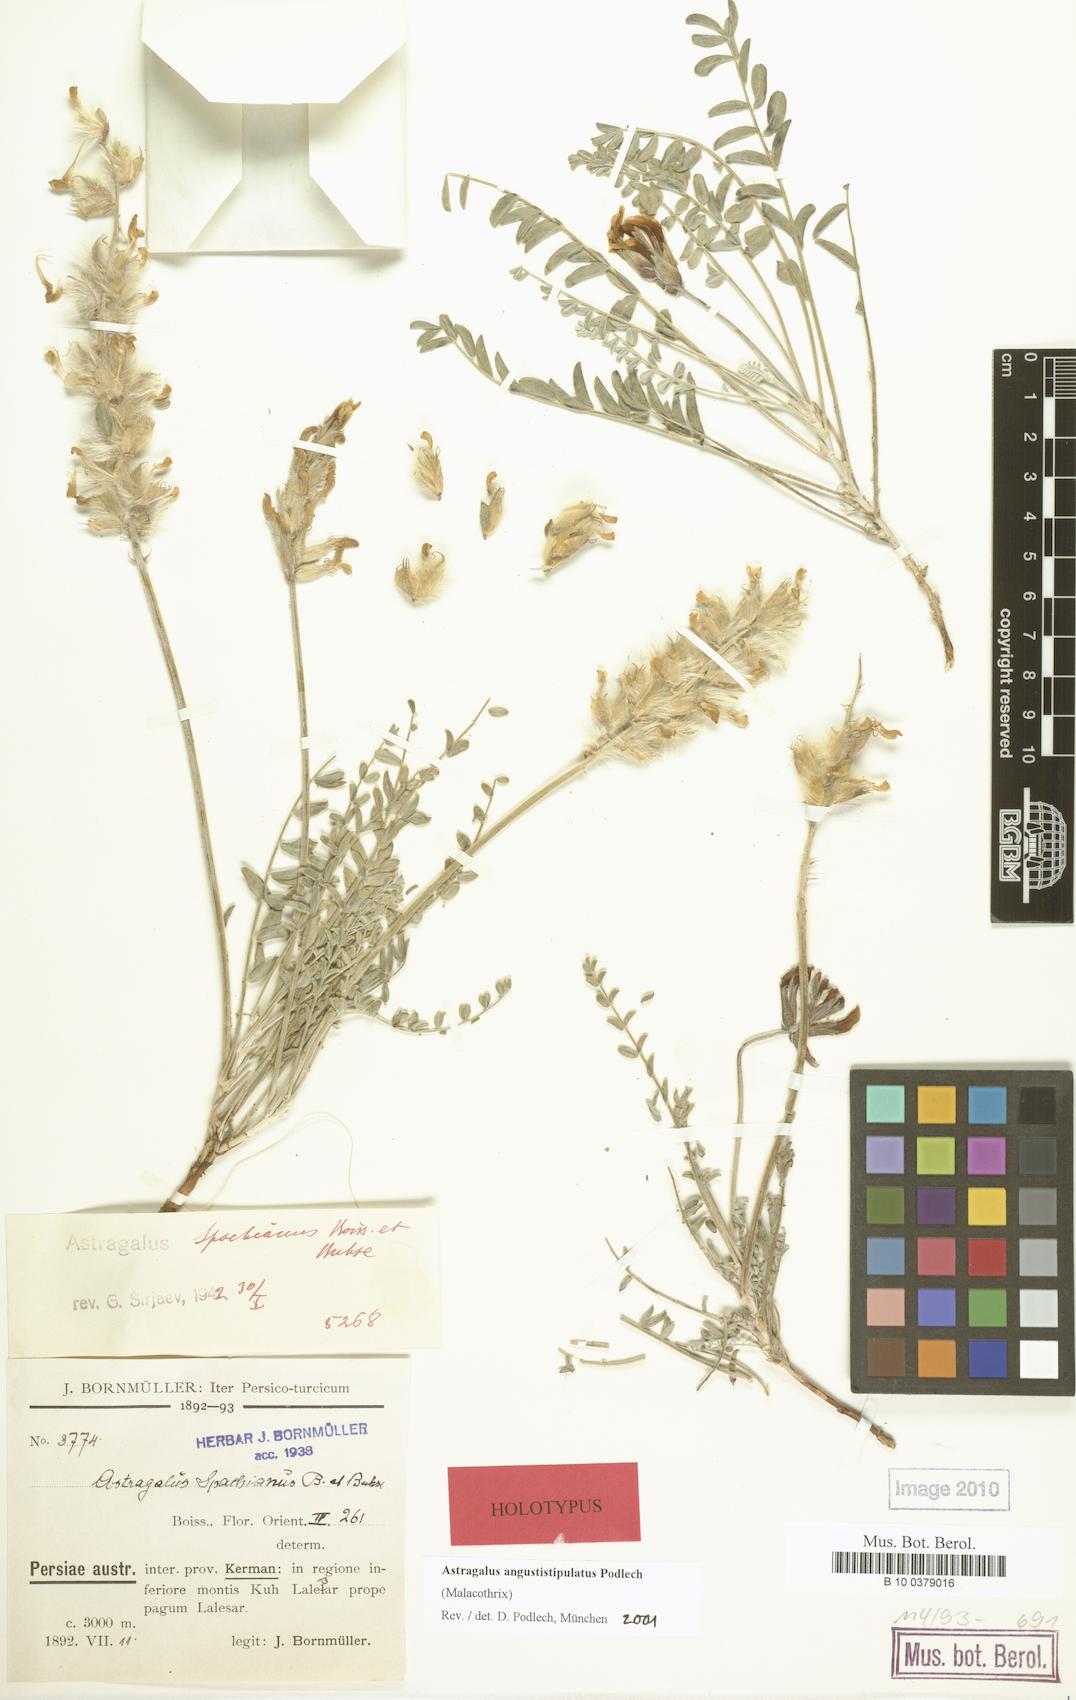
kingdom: Plantae
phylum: Tracheophyta
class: Magnoliopsida
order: Fabales
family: Fabaceae
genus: Astragalus
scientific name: Astragalus angustistipulatus
